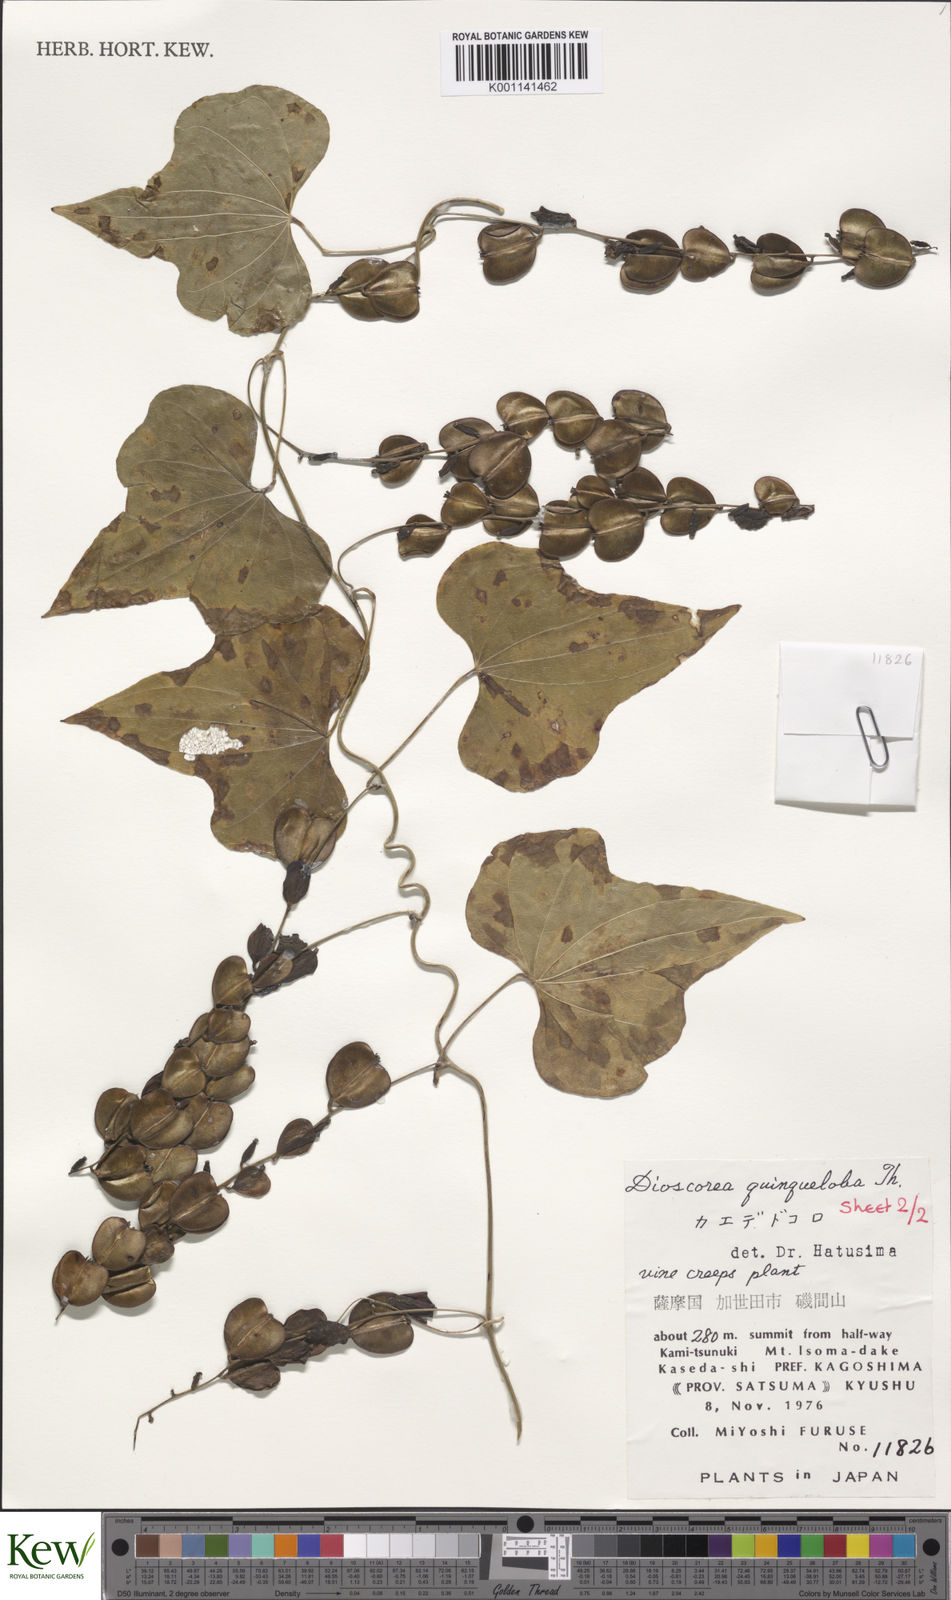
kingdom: Plantae
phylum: Tracheophyta
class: Liliopsida
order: Dioscoreales
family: Dioscoreaceae
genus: Dioscorea
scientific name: Dioscorea quinquelobata
